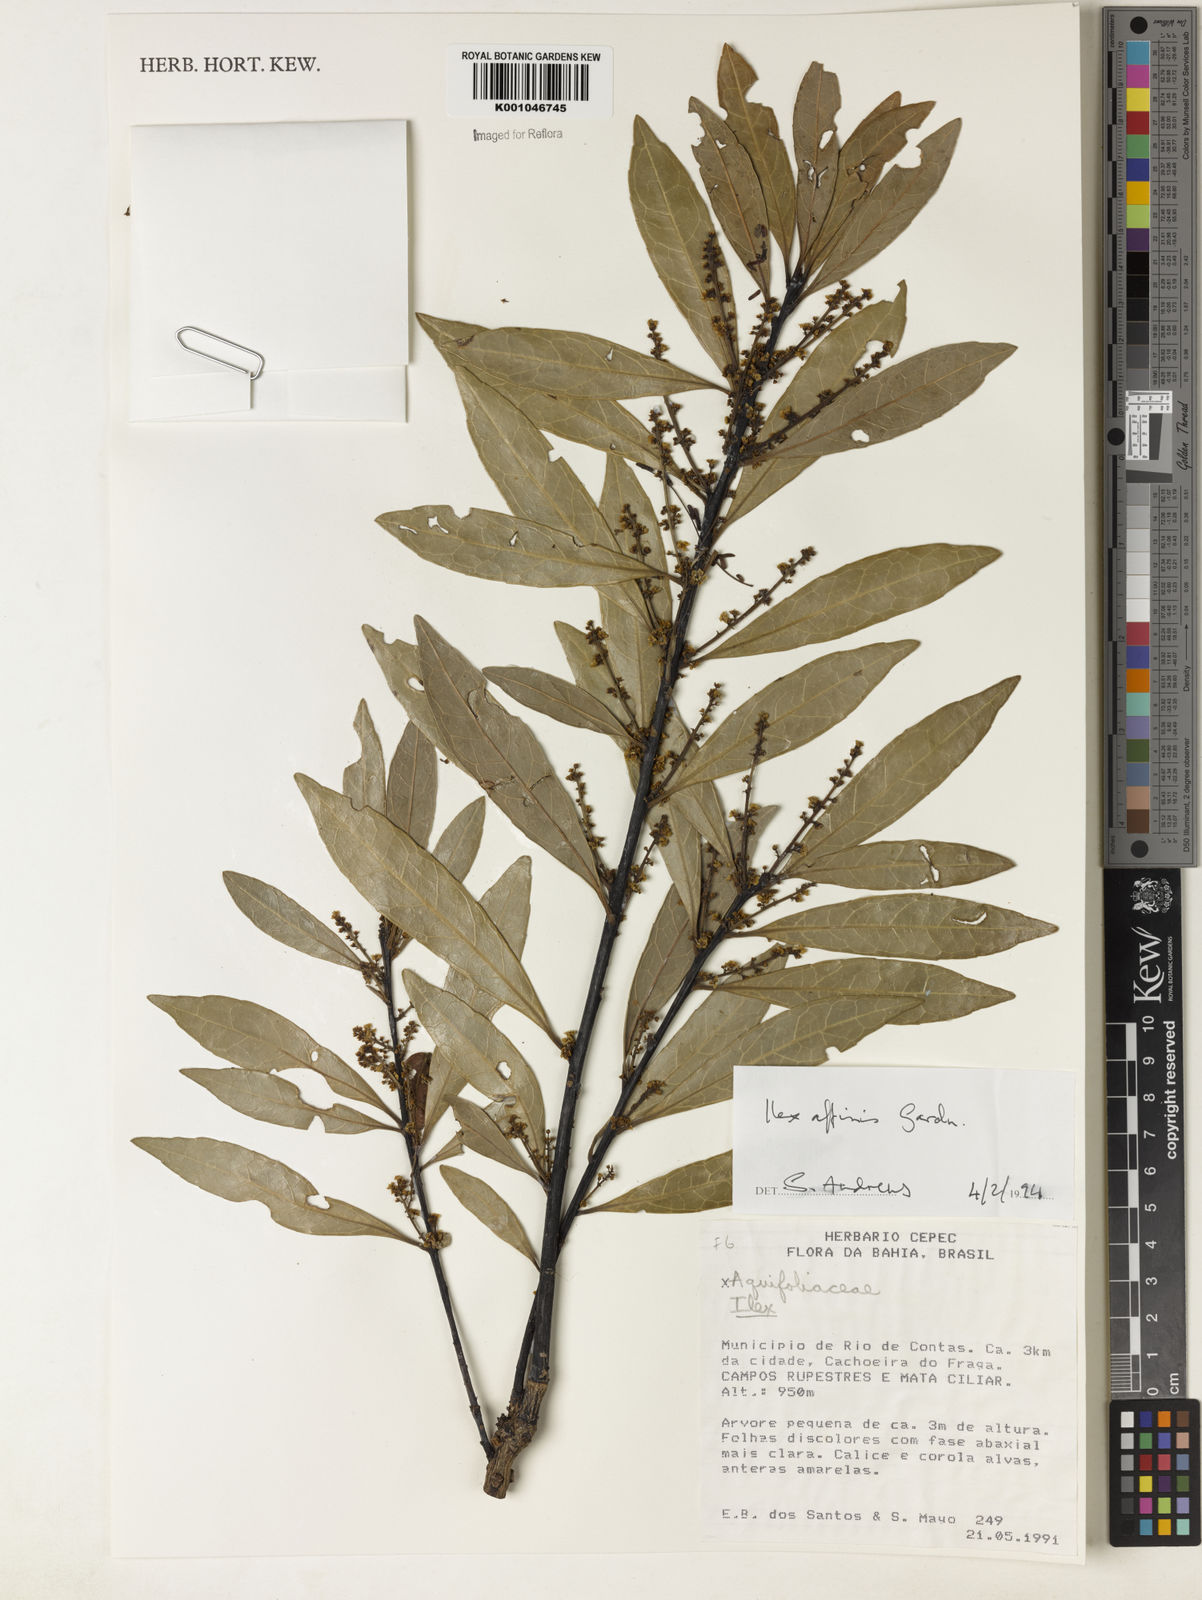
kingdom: Plantae
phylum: Tracheophyta
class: Magnoliopsida
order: Aquifoliales
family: Aquifoliaceae
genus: Ilex
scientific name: Ilex affinis
